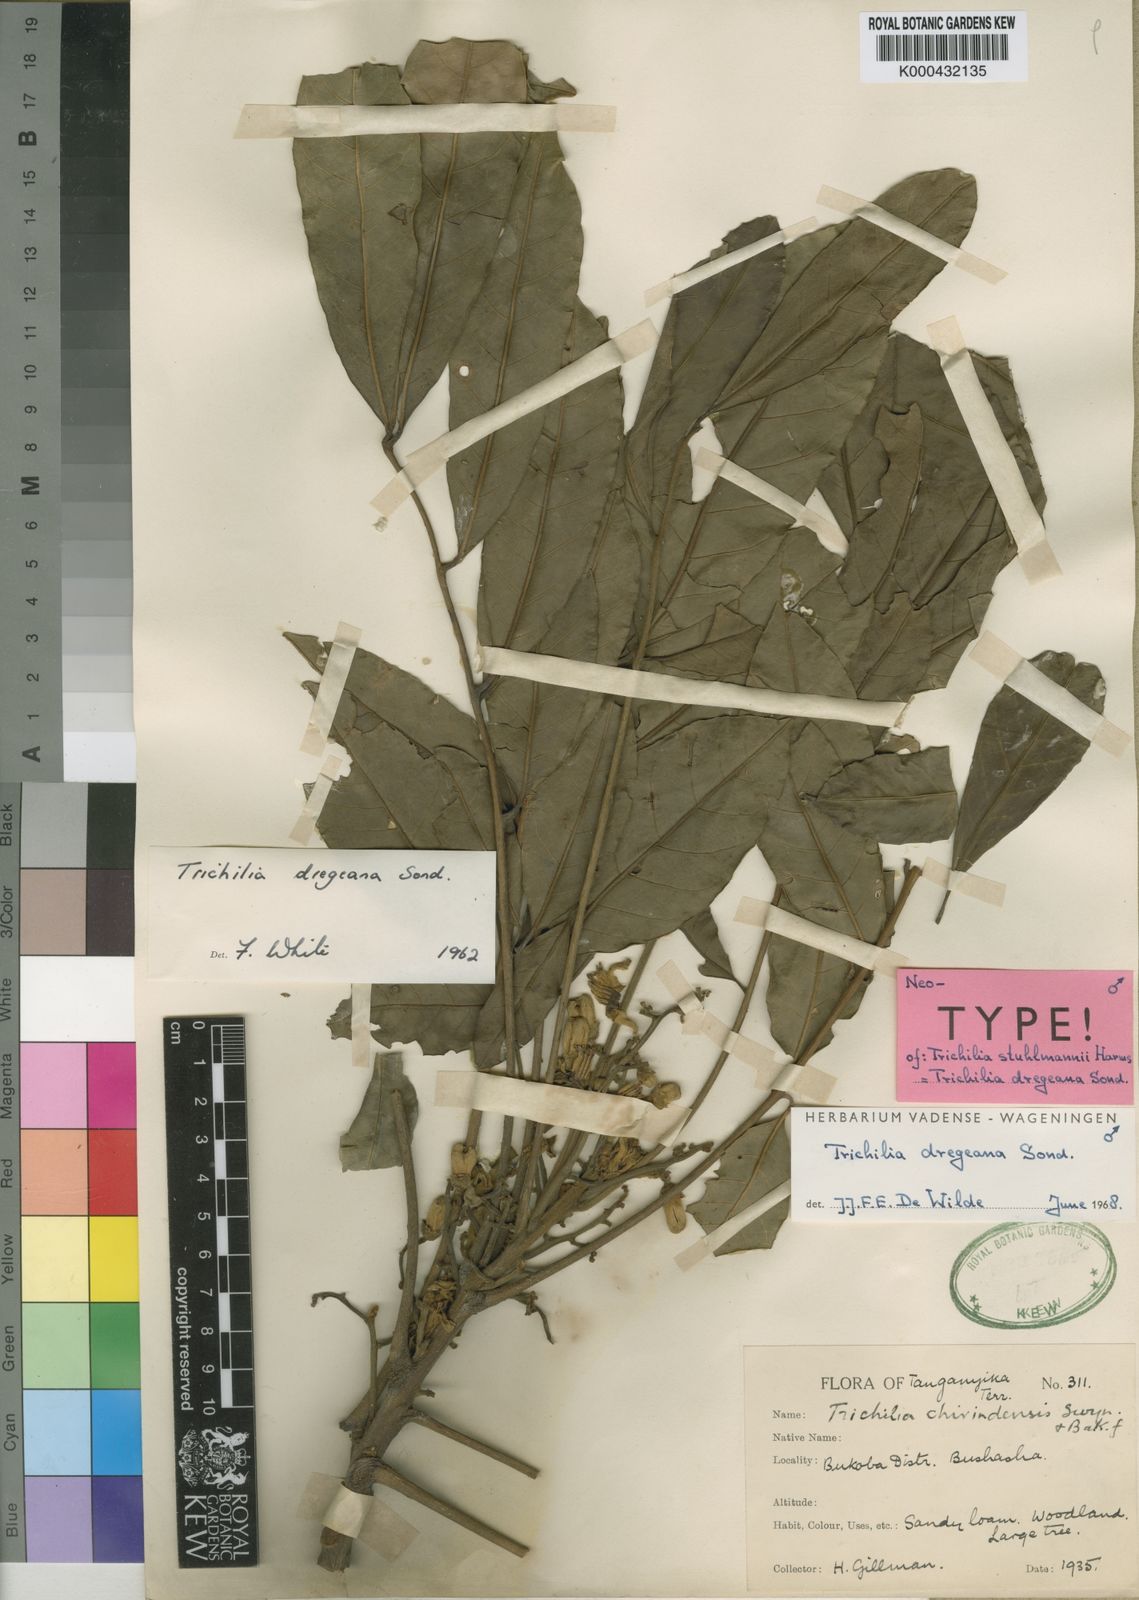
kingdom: Plantae
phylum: Tracheophyta
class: Magnoliopsida
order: Sapindales
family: Meliaceae
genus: Trichilia
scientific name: Trichilia dregeana
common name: Christmas-bells
